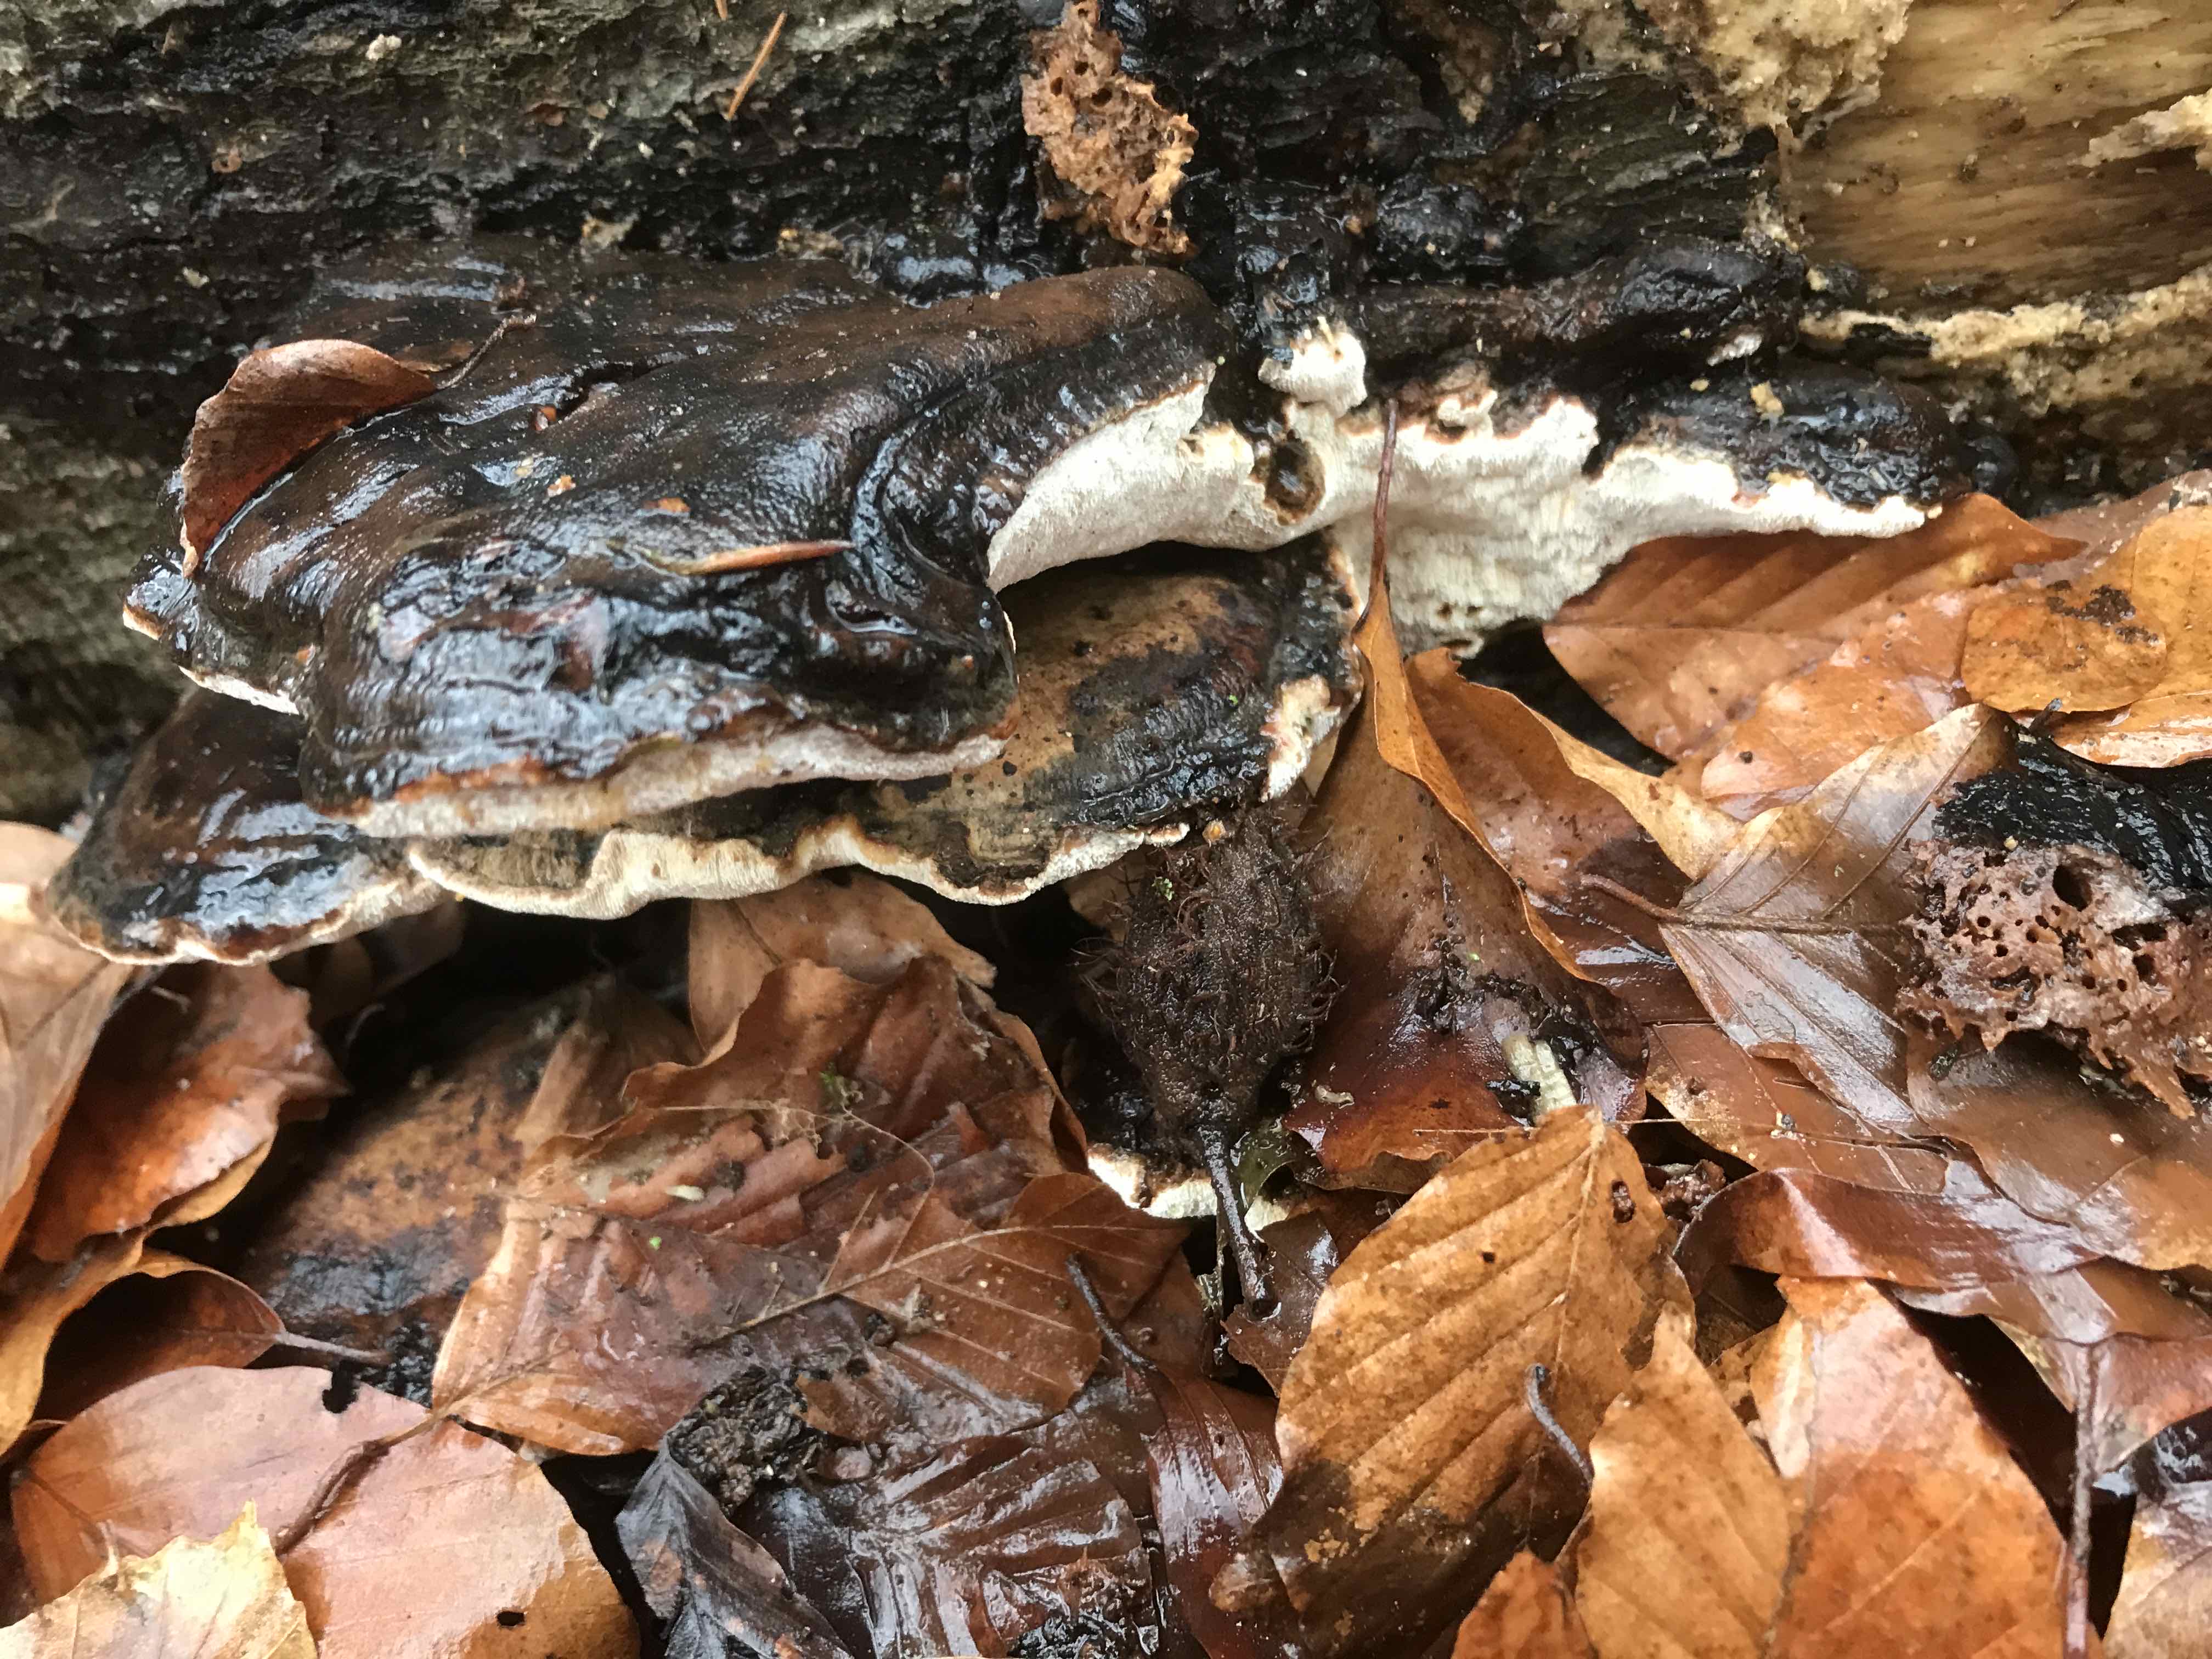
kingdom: Fungi
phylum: Basidiomycota
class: Agaricomycetes
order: Polyporales
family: Ischnodermataceae
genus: Ischnoderma
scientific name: Ischnoderma resinosum
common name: løv-tjæreporesvamp
